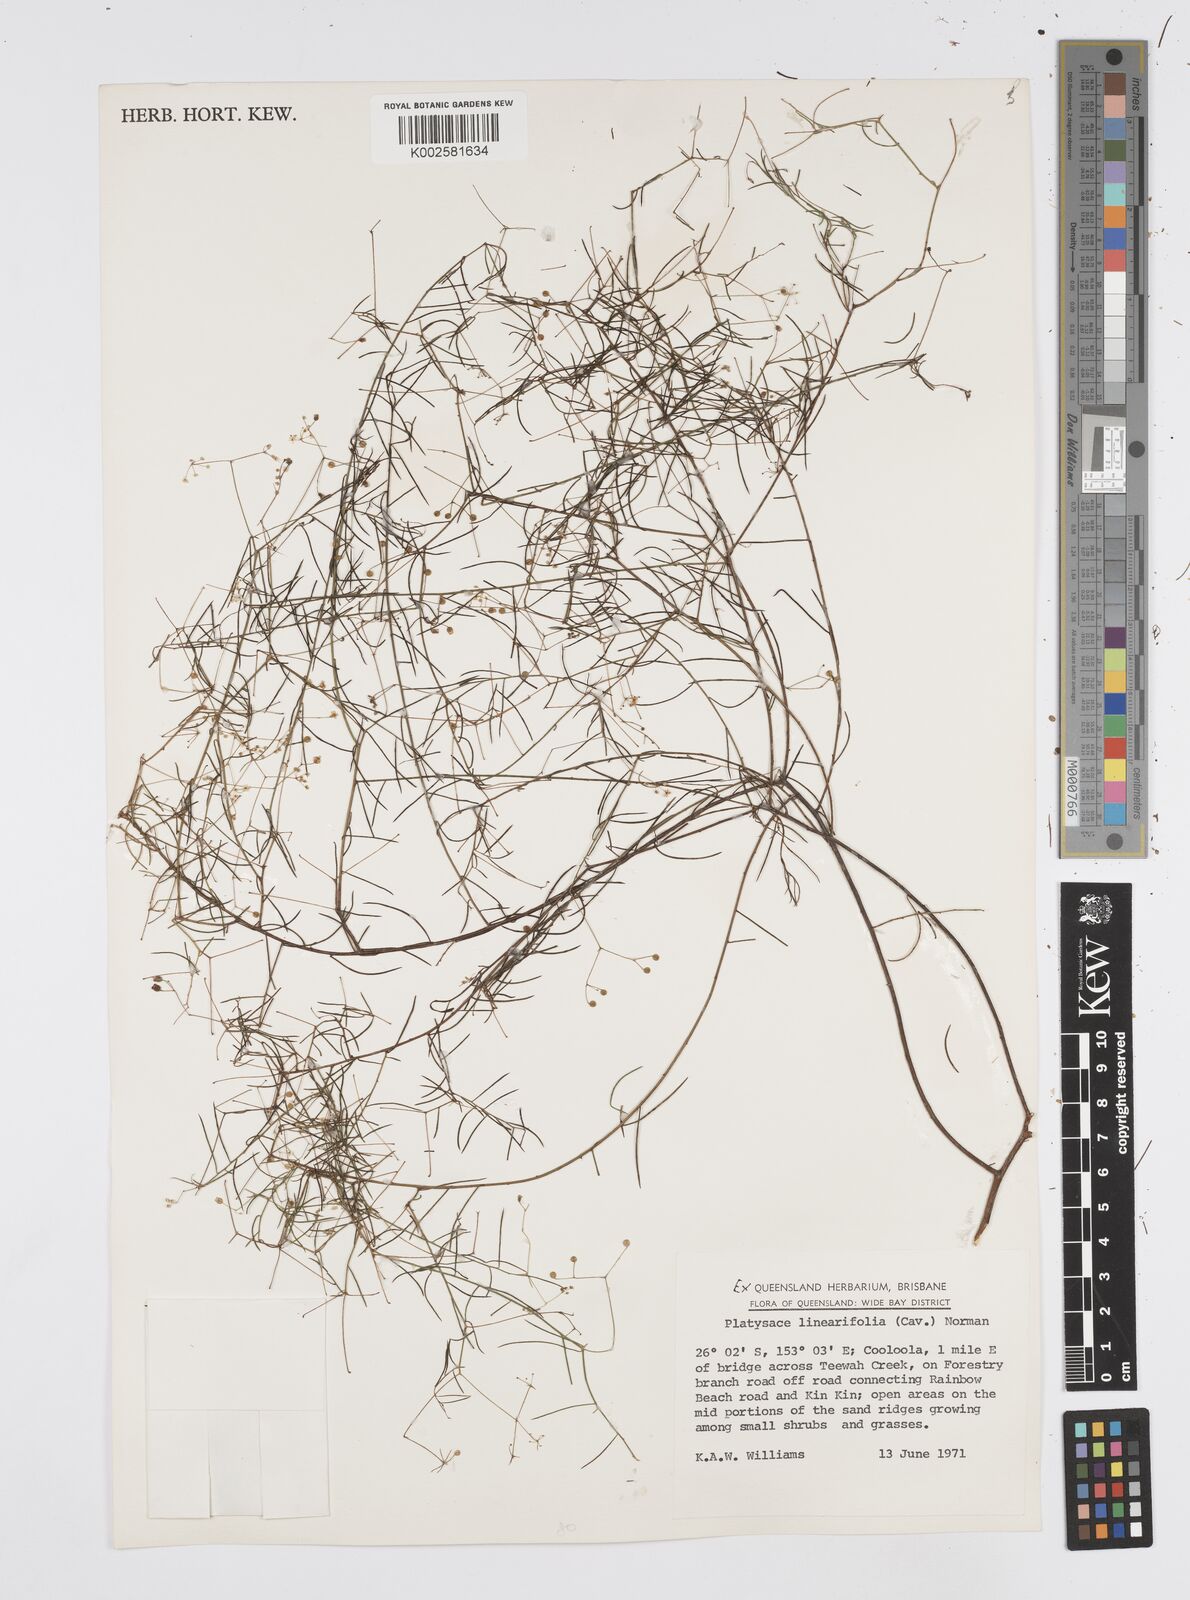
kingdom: Plantae
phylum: Tracheophyta
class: Magnoliopsida
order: Apiales
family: Apiaceae
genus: Platysace
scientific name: Platysace linearifolia
